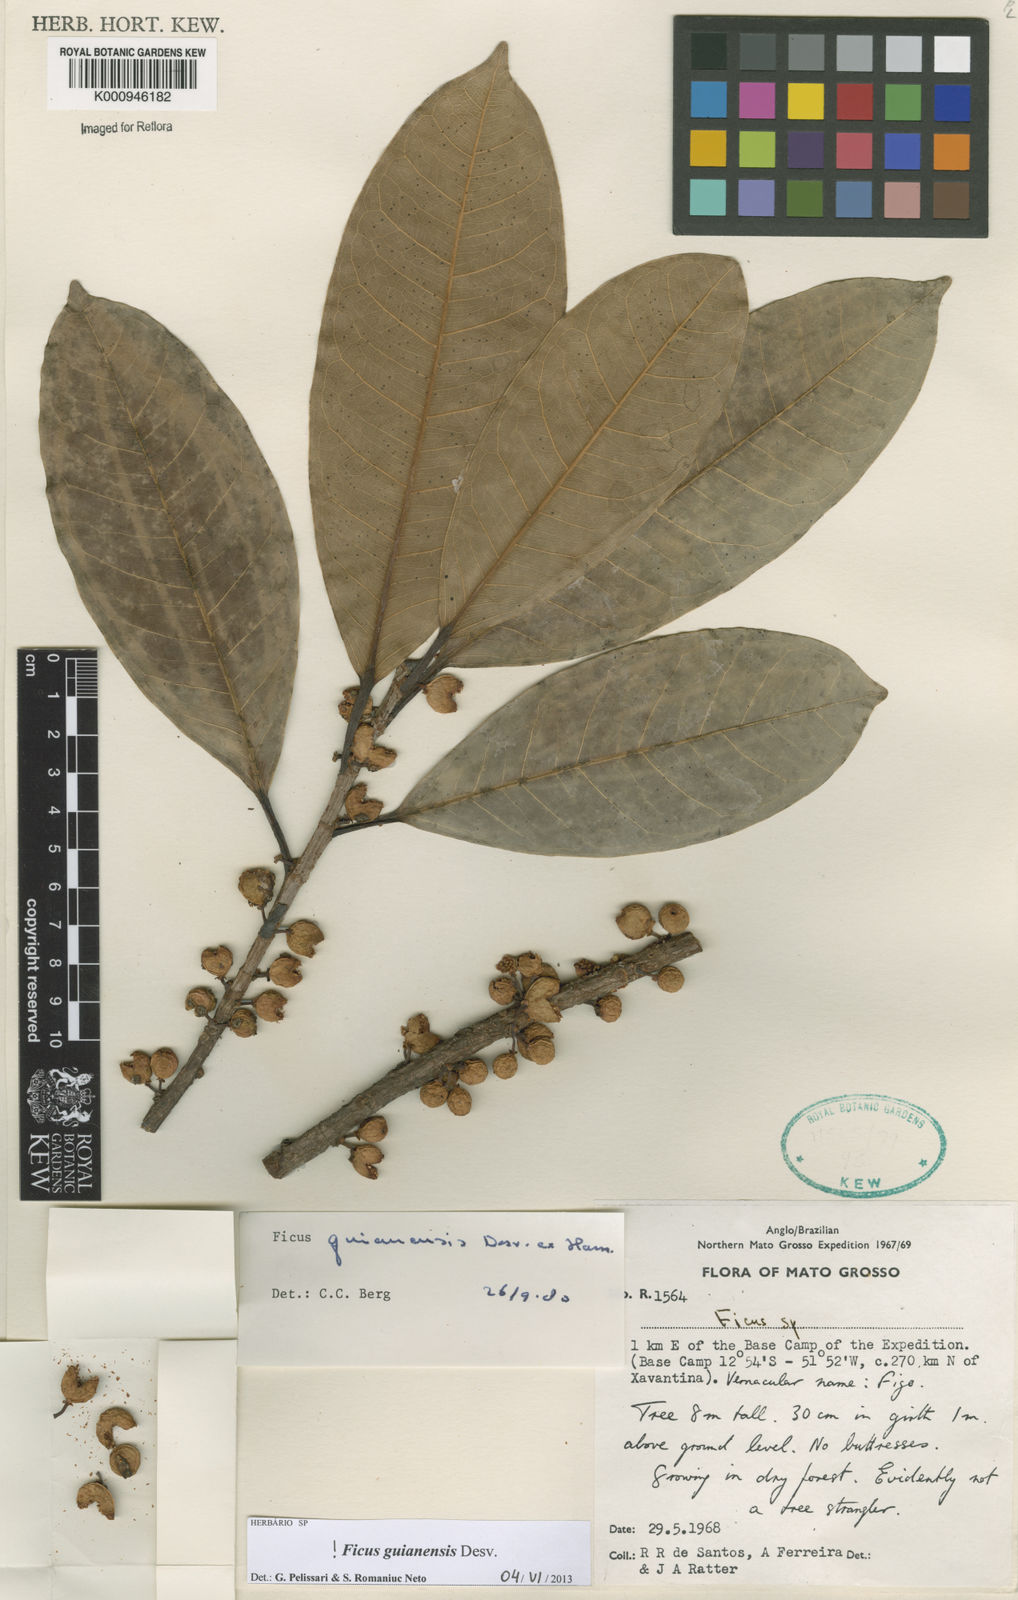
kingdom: Plantae
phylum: Tracheophyta
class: Magnoliopsida
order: Rosales
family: Moraceae
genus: Ficus
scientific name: Ficus
